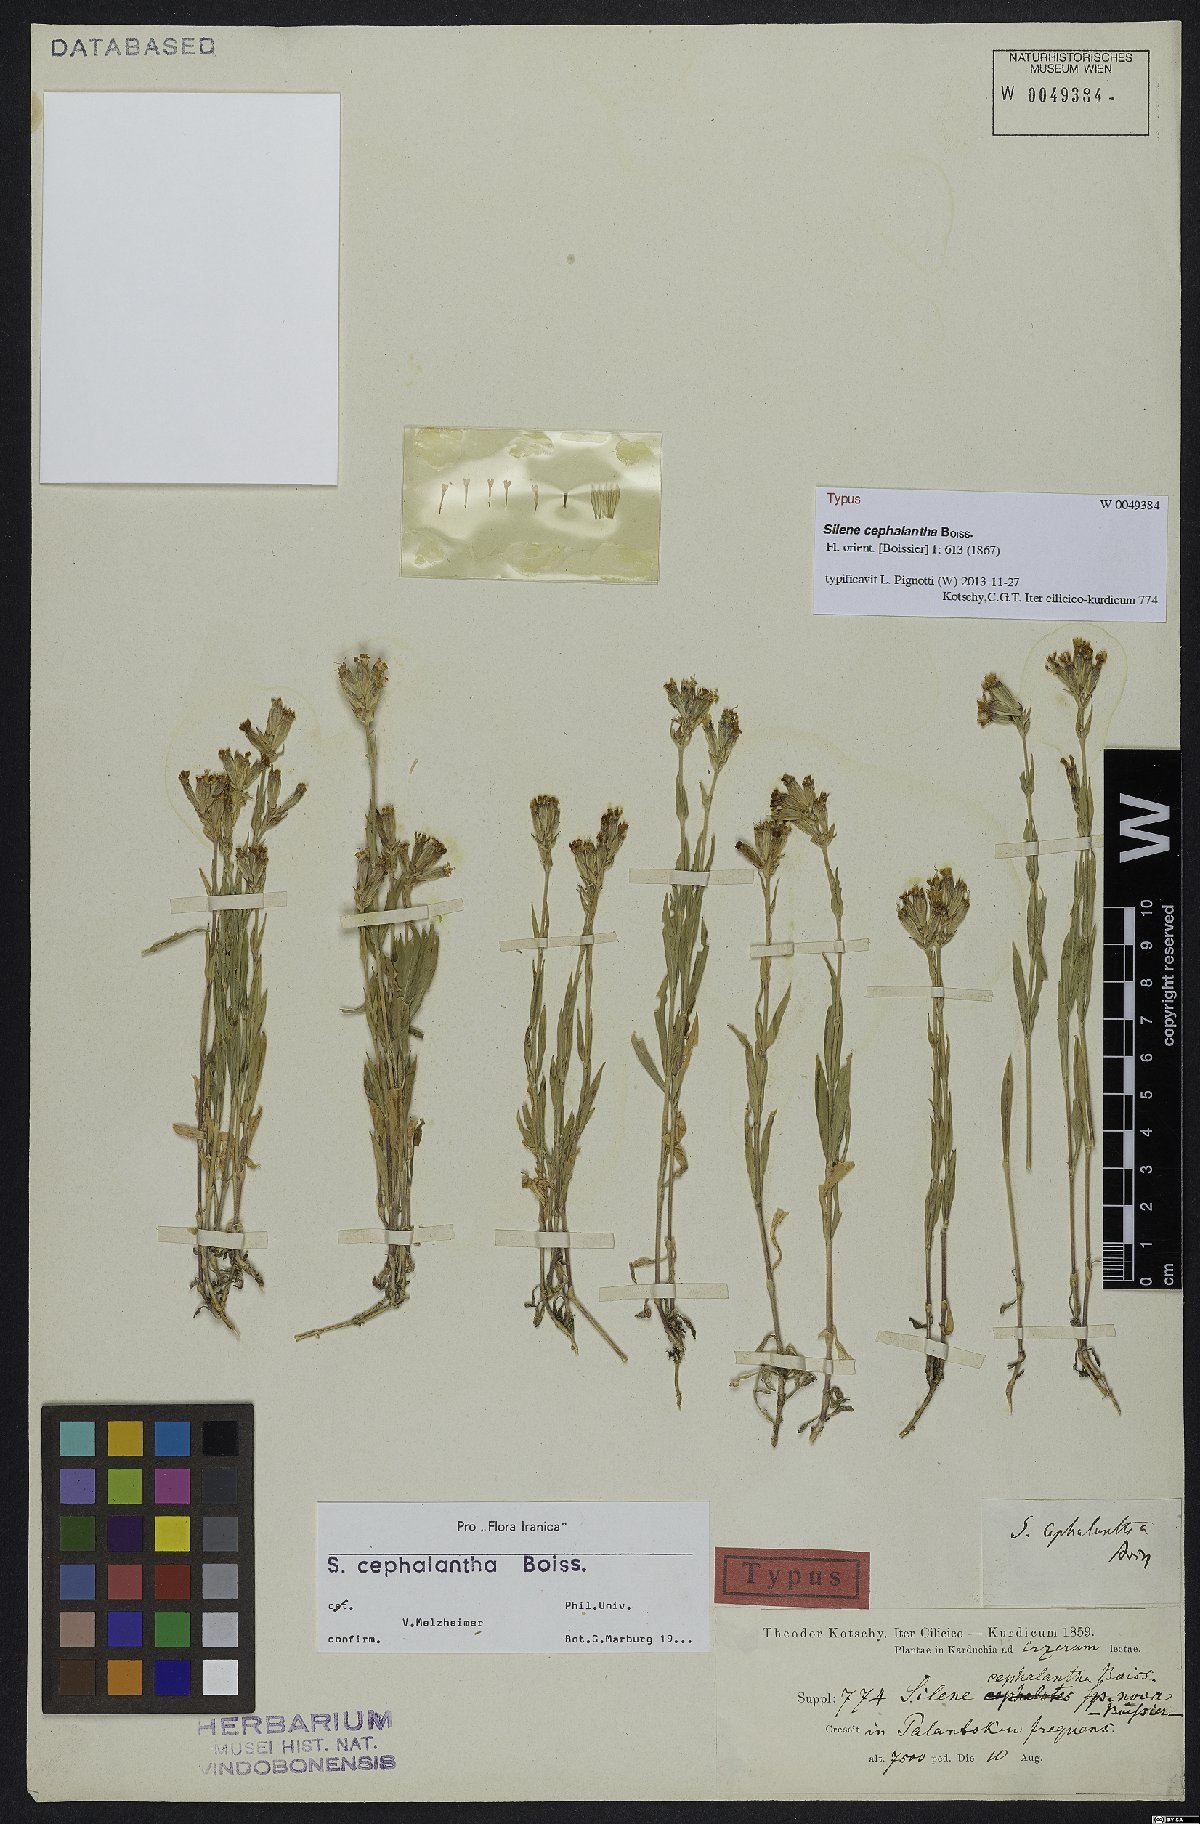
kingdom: Plantae
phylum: Tracheophyta
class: Magnoliopsida
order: Caryophyllales
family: Caryophyllaceae
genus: Silene
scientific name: Silene spergulifolia
